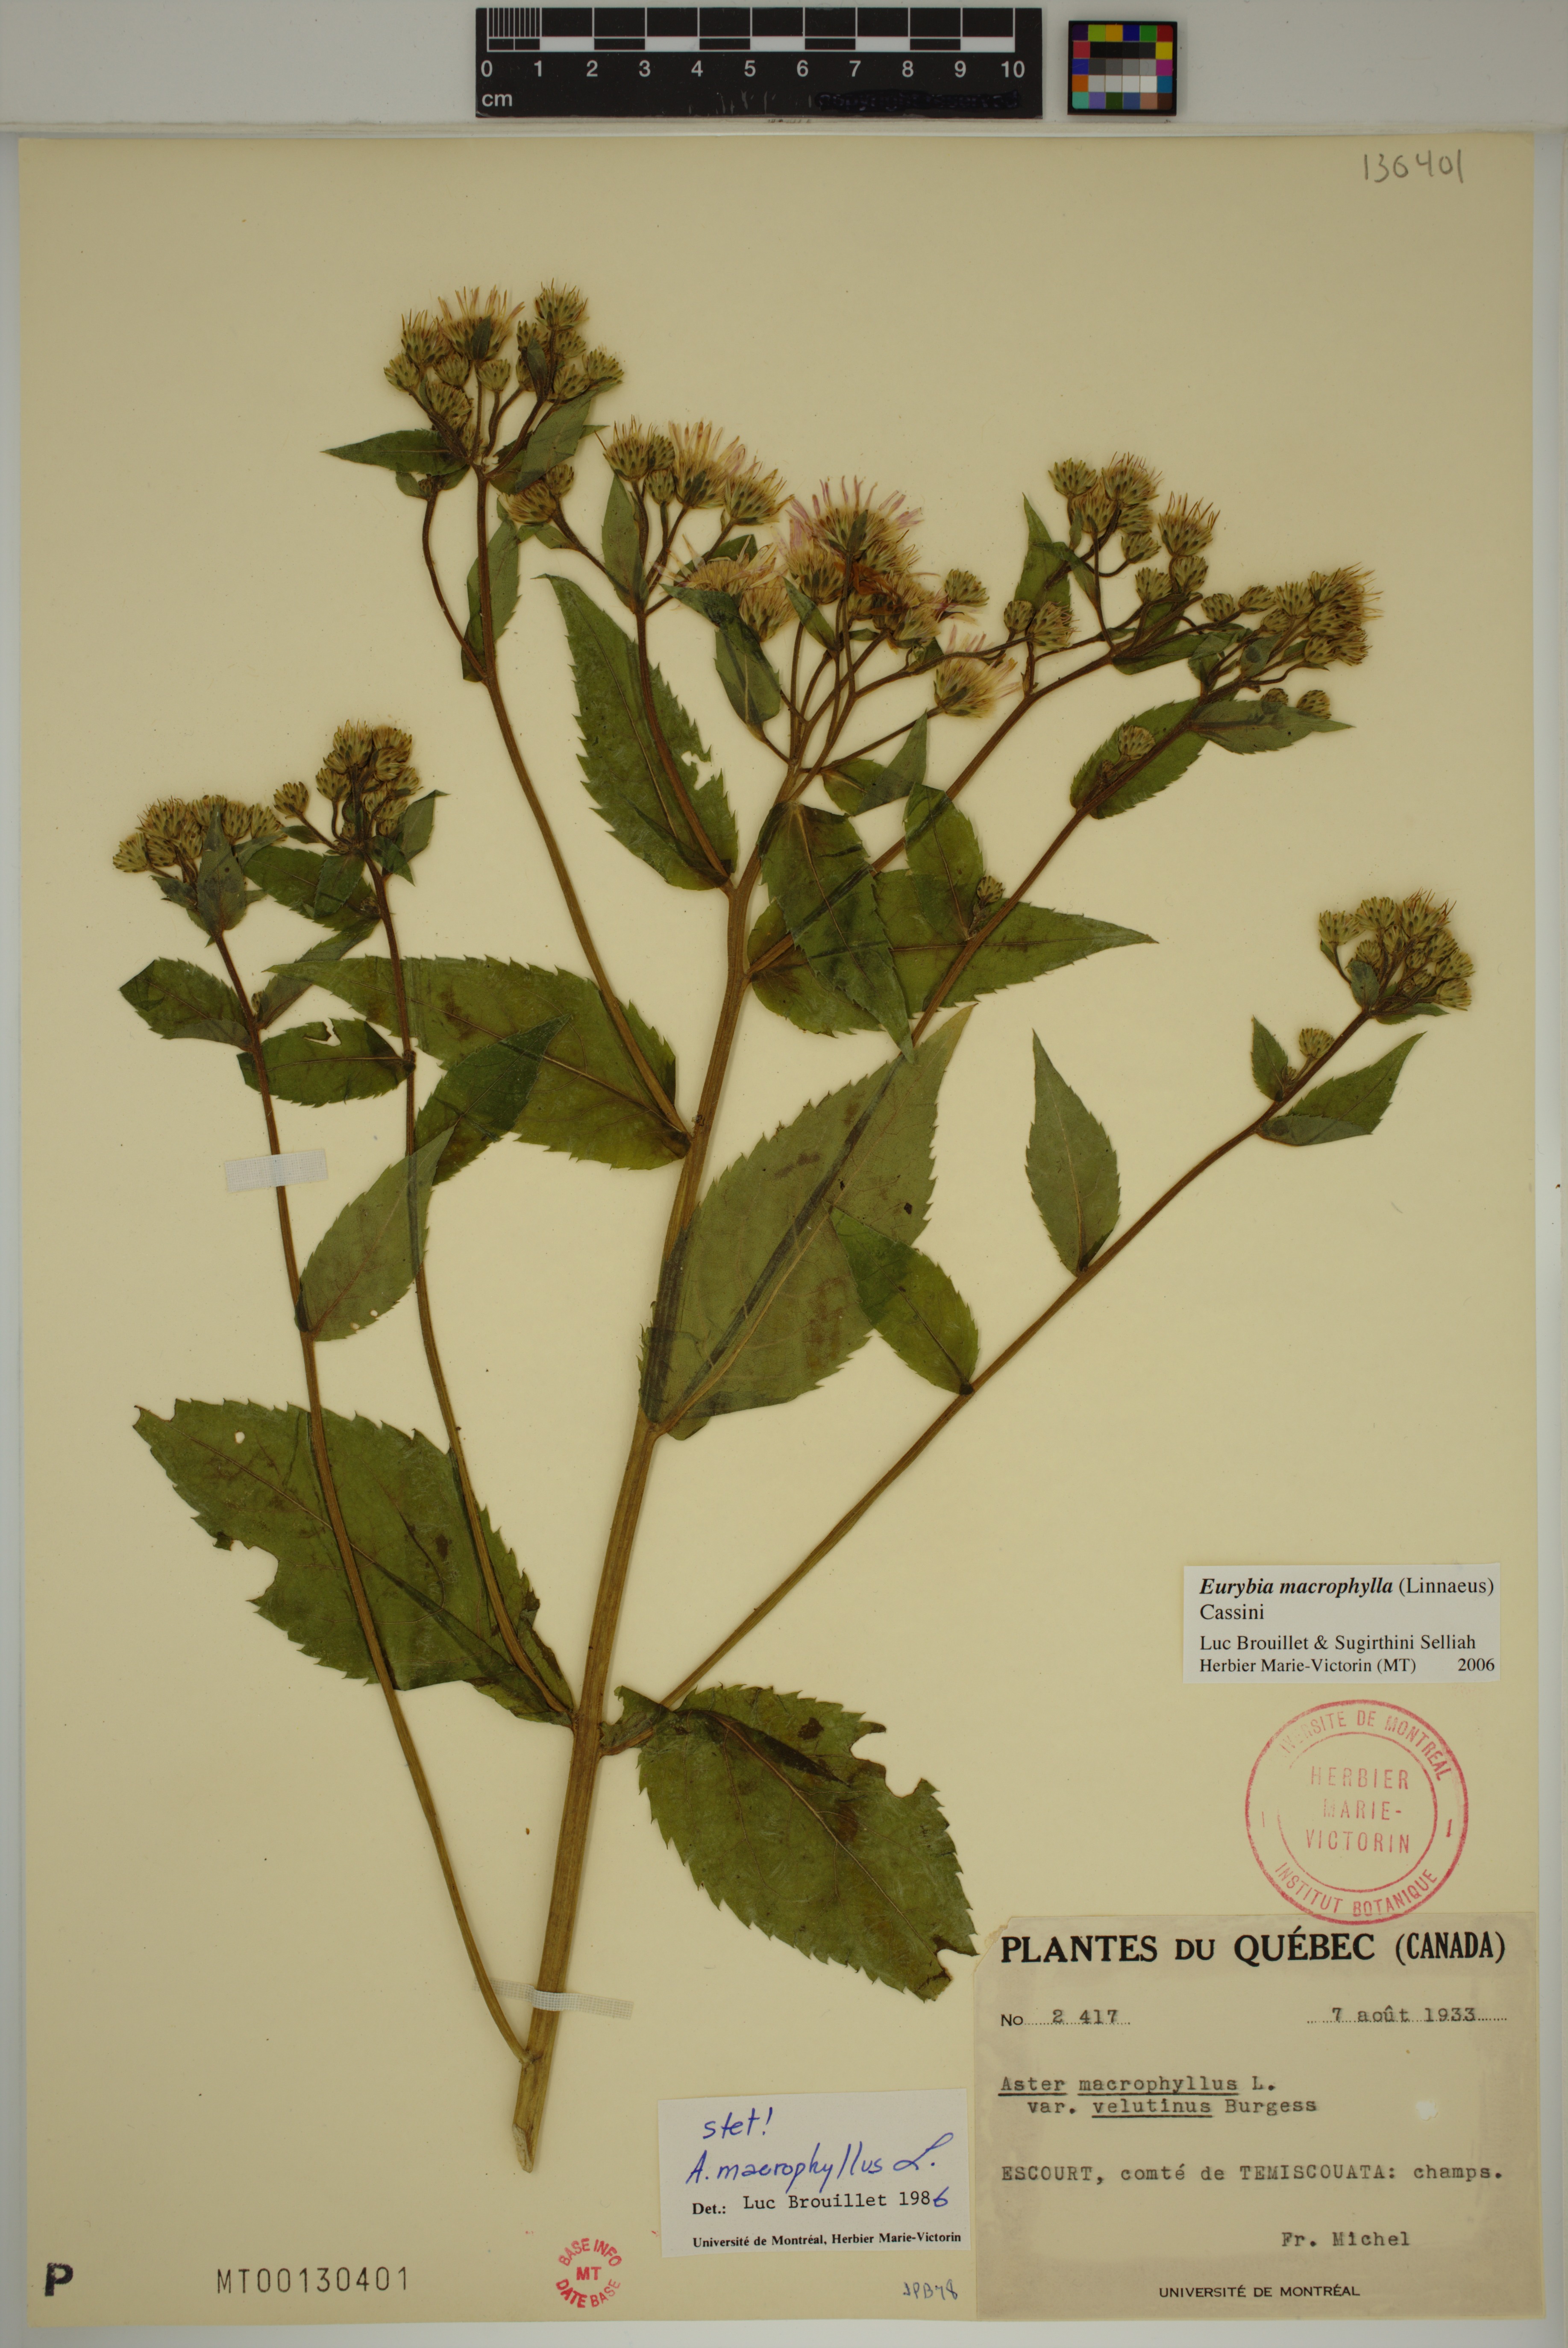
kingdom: Plantae
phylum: Tracheophyta
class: Magnoliopsida
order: Asterales
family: Asteraceae
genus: Eurybia
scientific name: Eurybia macrophylla
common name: Big-leaved aster
